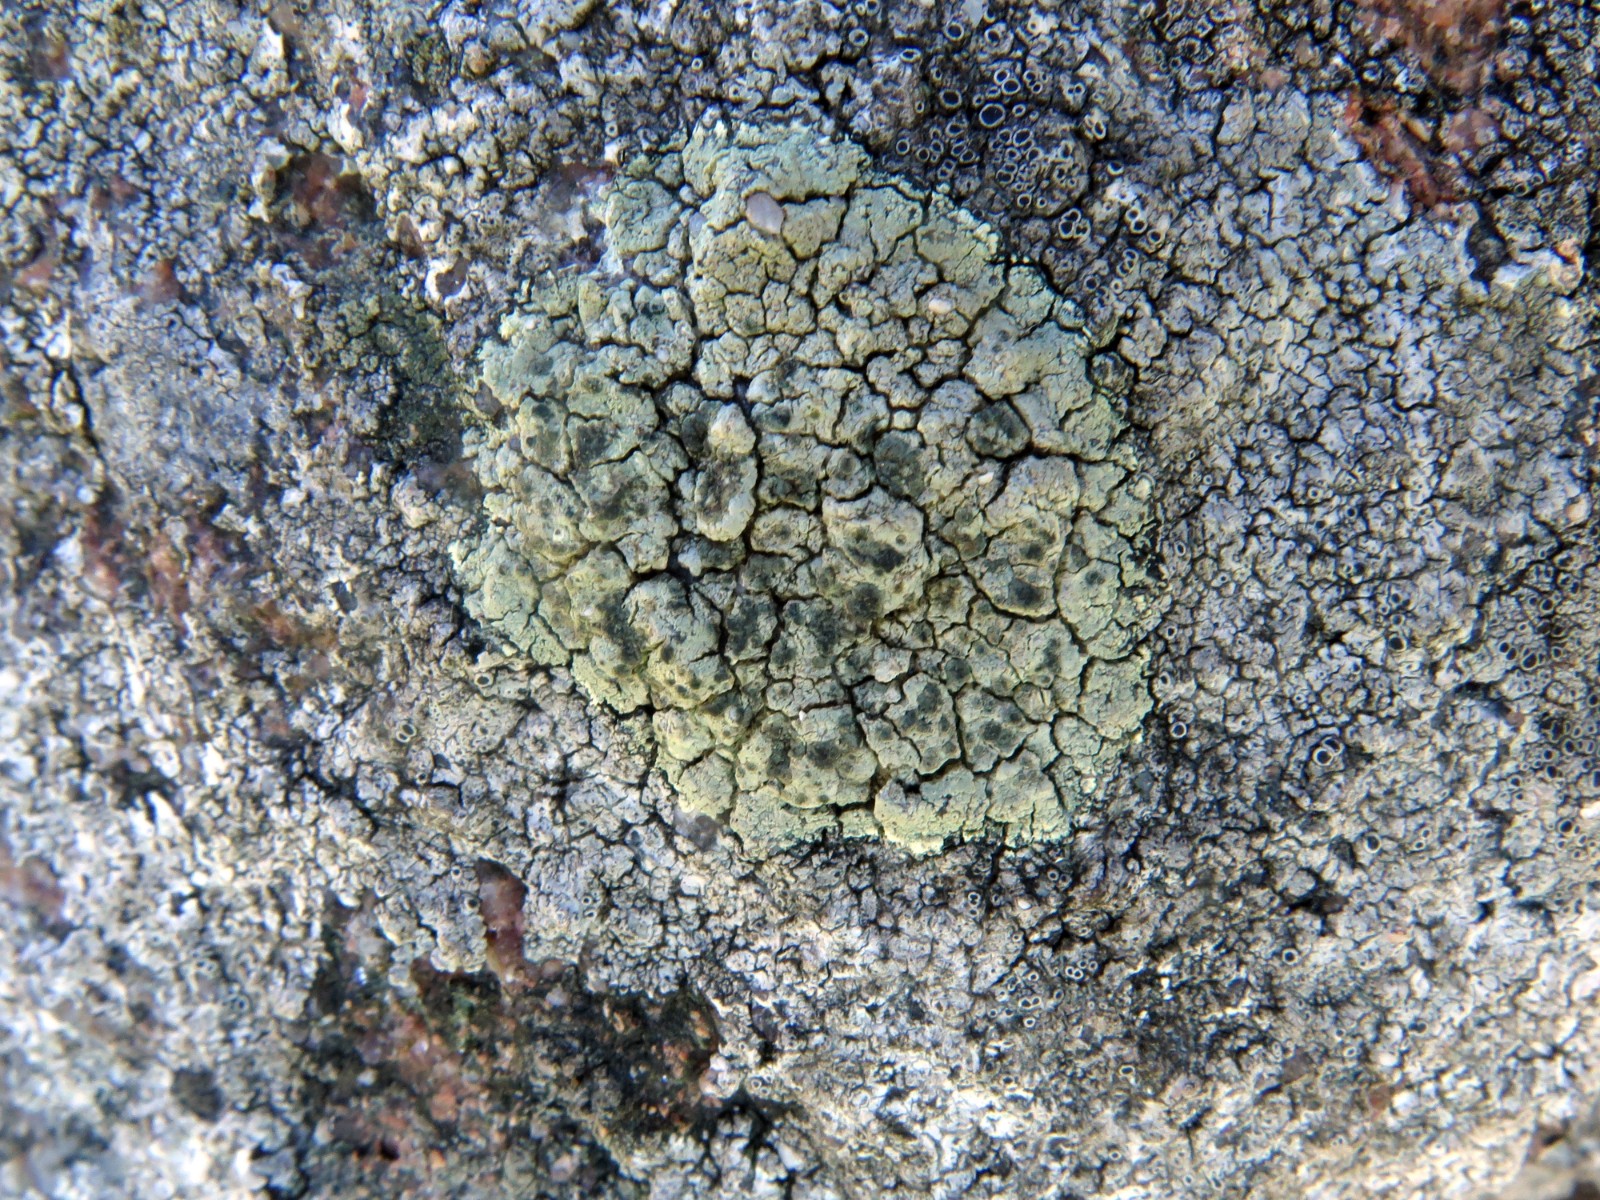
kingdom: Fungi
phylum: Ascomycota
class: Lecanoromycetes
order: Lecanorales
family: Lecanoraceae
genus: Glaucomaria
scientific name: Glaucomaria sulphurea
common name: svovlgul kantskivelav
